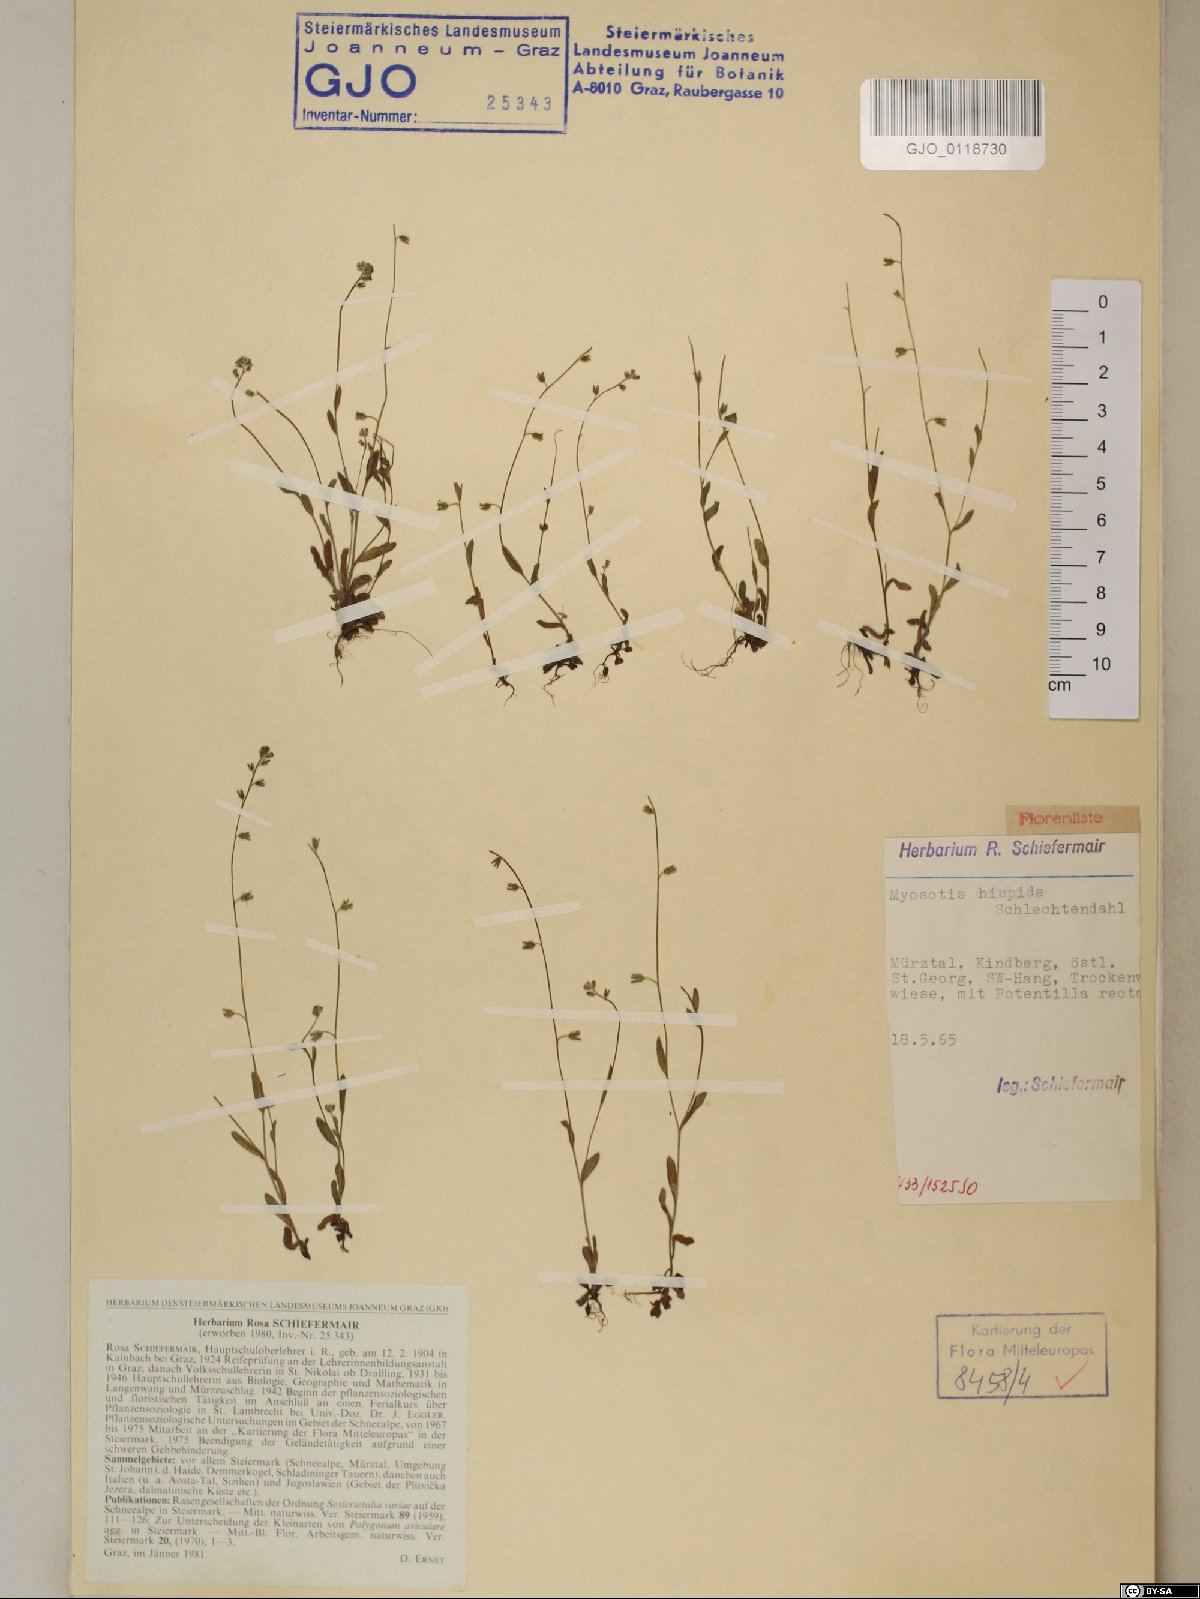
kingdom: Plantae
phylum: Tracheophyta
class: Magnoliopsida
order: Boraginales
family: Boraginaceae
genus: Myosotis
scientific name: Myosotis ramosissima
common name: Early forget-me-not
